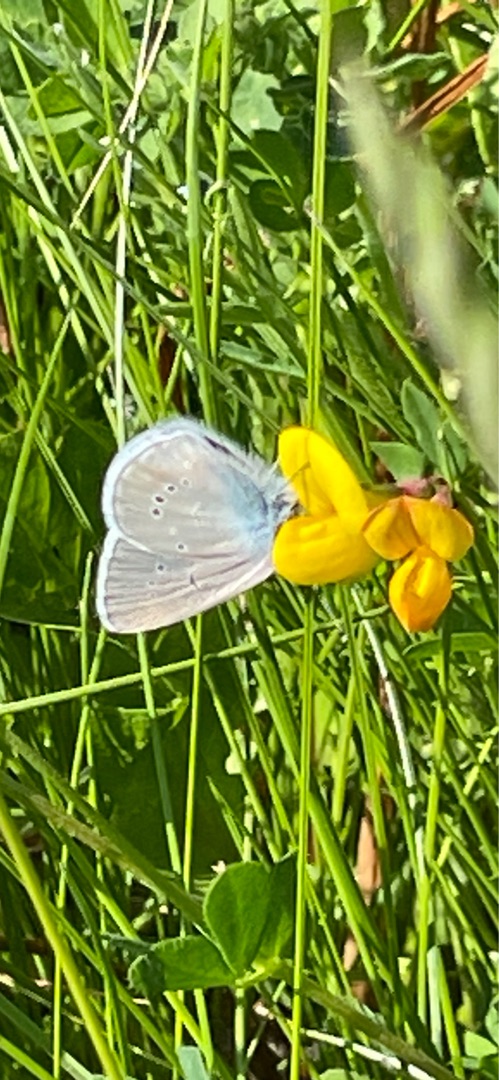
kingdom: Animalia
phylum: Arthropoda
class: Insecta
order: Lepidoptera
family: Lycaenidae
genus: Cyaniris
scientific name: Cyaniris semiargus
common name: Engblåfugl
